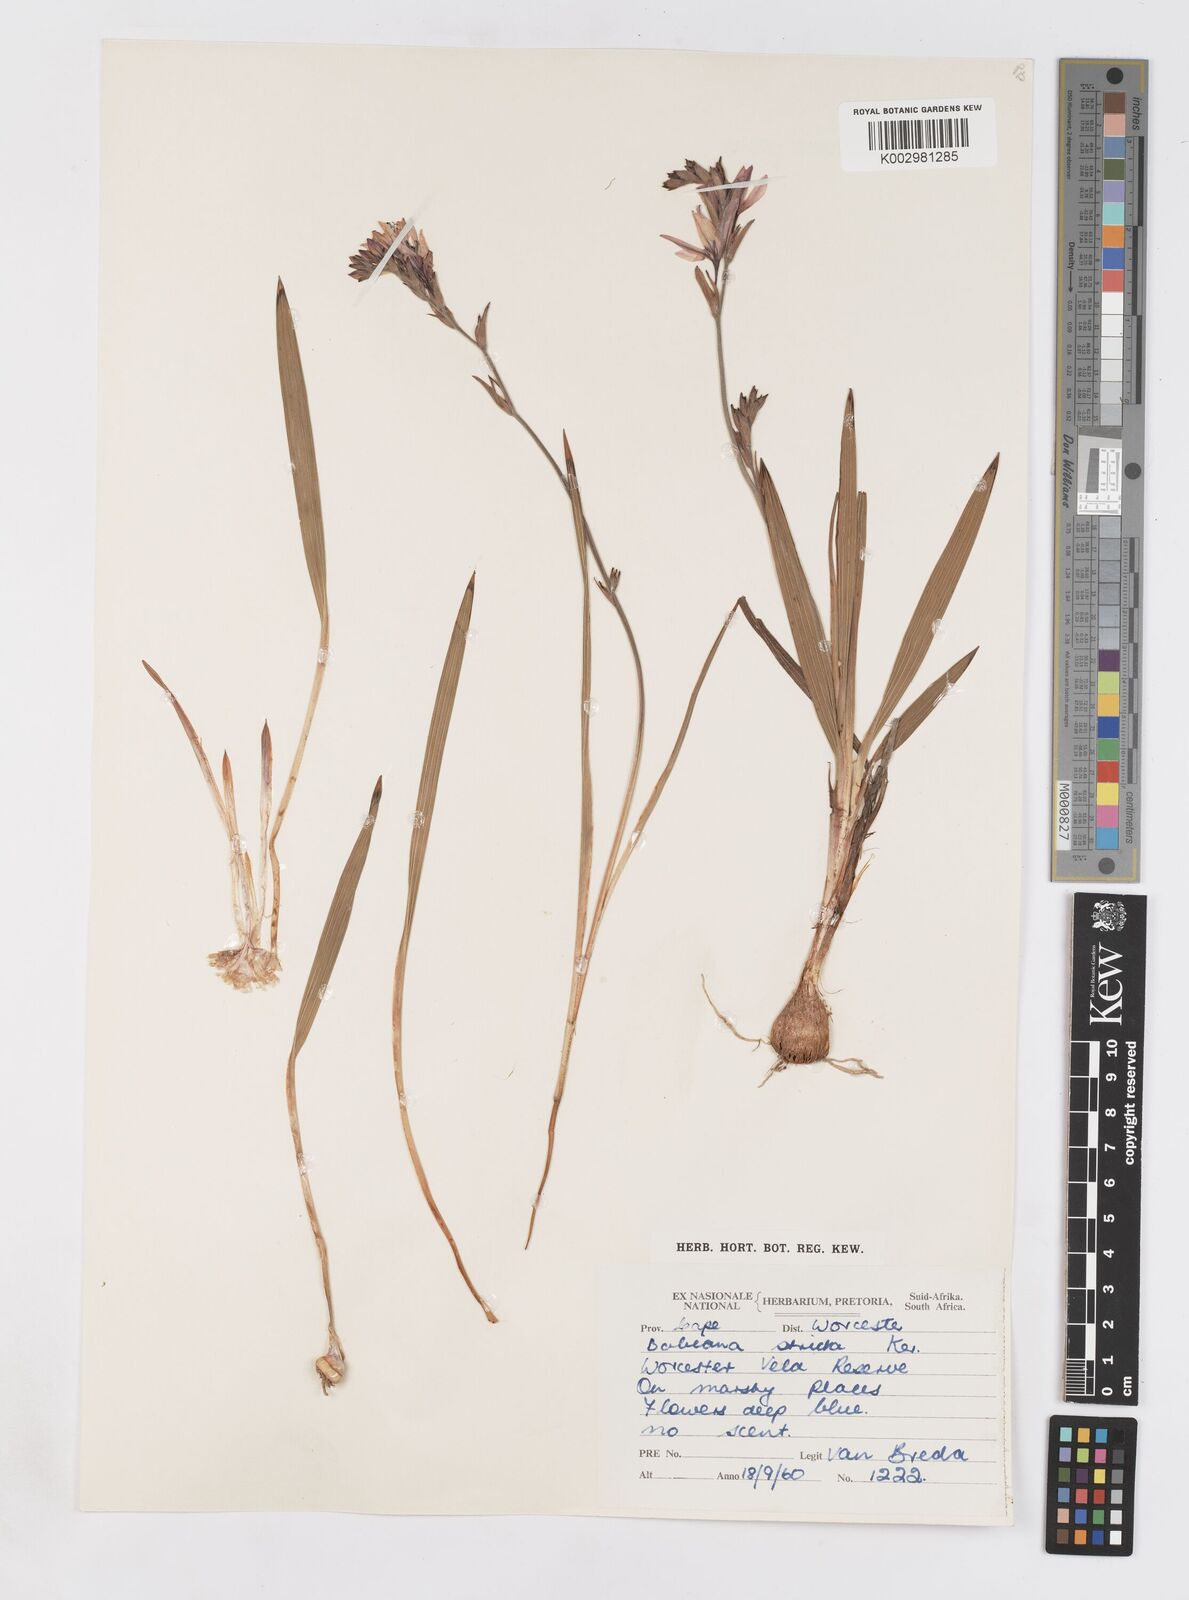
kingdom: Plantae
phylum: Tracheophyta
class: Liliopsida
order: Asparagales
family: Iridaceae
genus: Babiana
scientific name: Babiana nervosa
